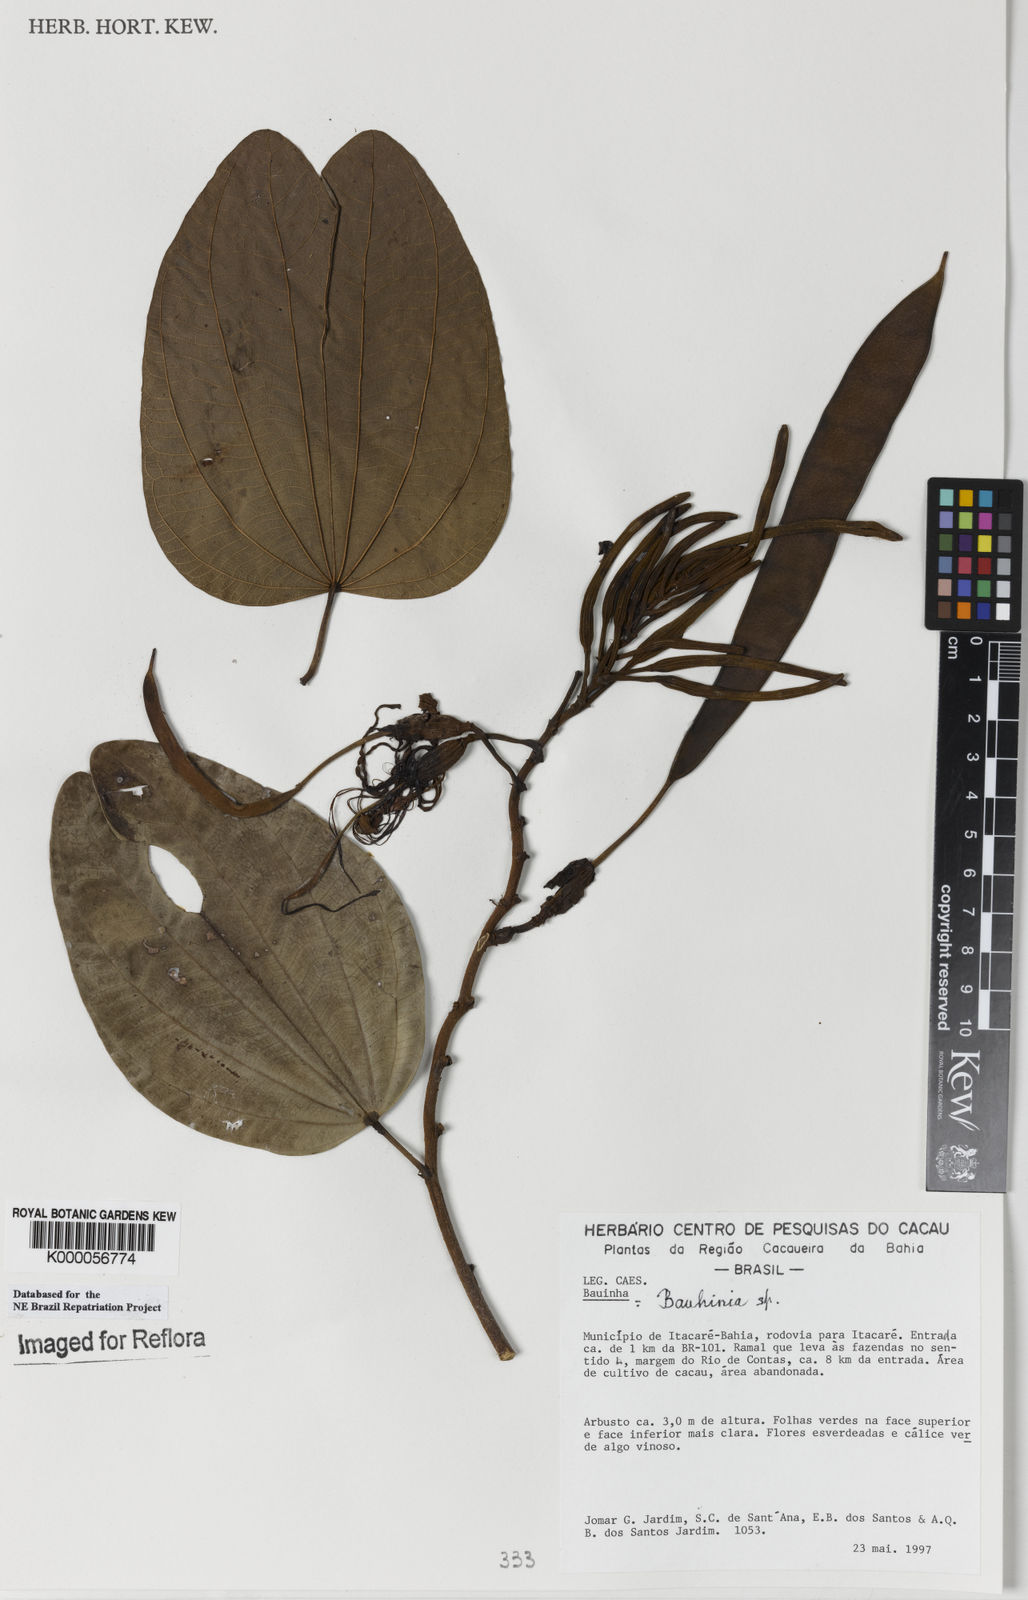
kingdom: Plantae
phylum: Tracheophyta
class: Magnoliopsida
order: Fabales
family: Fabaceae
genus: Bauhinia
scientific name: Bauhinia
